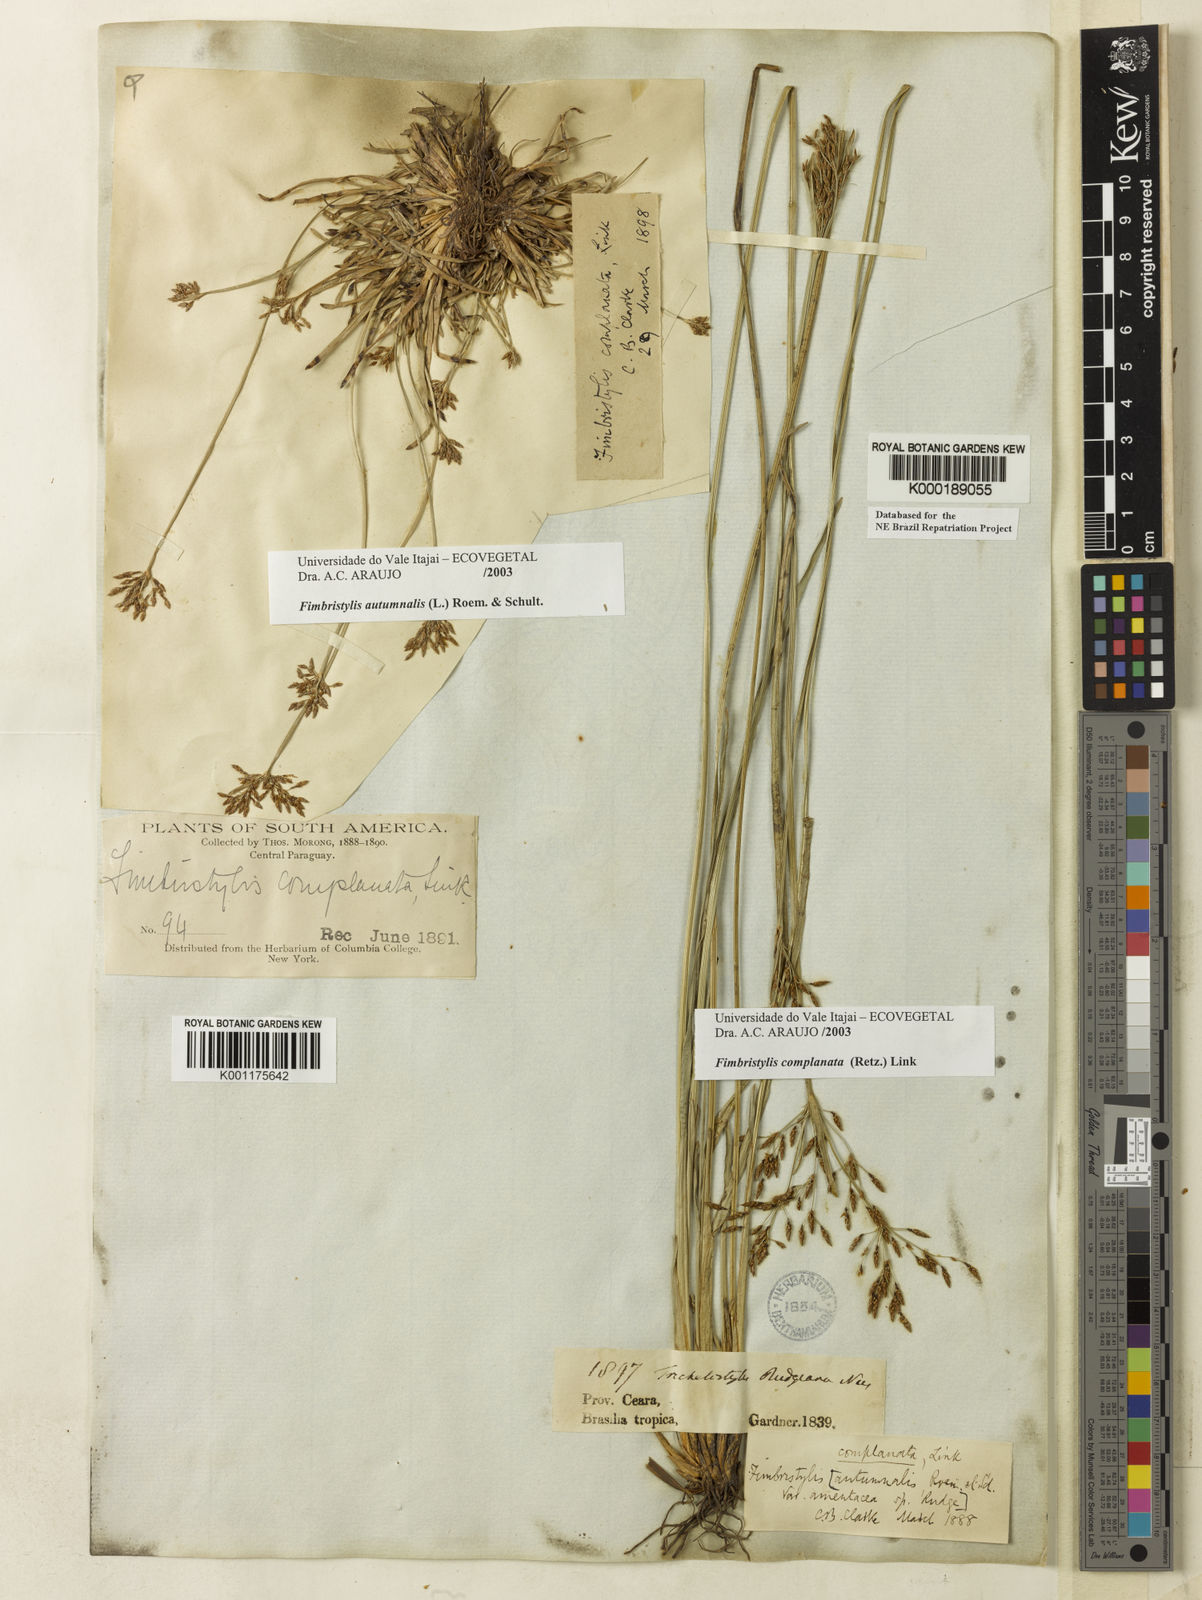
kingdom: Plantae
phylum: Tracheophyta
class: Liliopsida
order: Poales
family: Cyperaceae
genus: Fimbristylis
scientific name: Fimbristylis complanata
